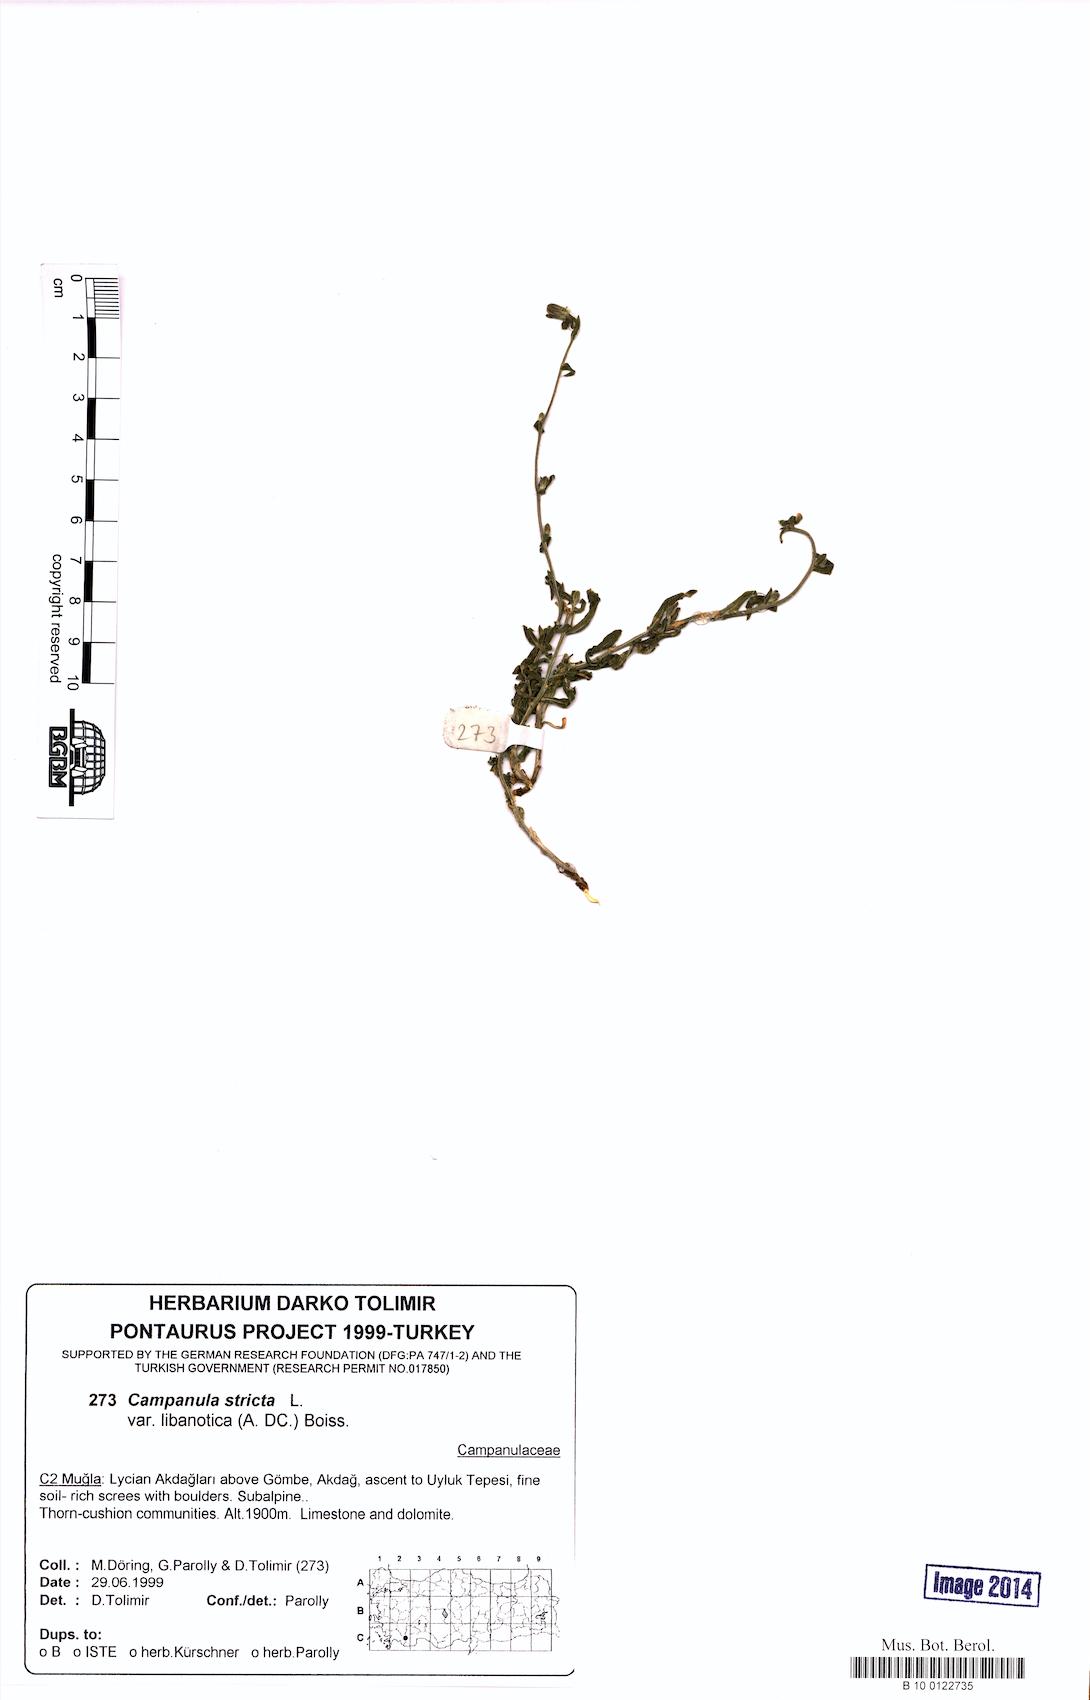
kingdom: Plantae
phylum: Tracheophyta
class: Magnoliopsida
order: Asterales
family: Campanulaceae
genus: Campanula
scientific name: Campanula stricta
